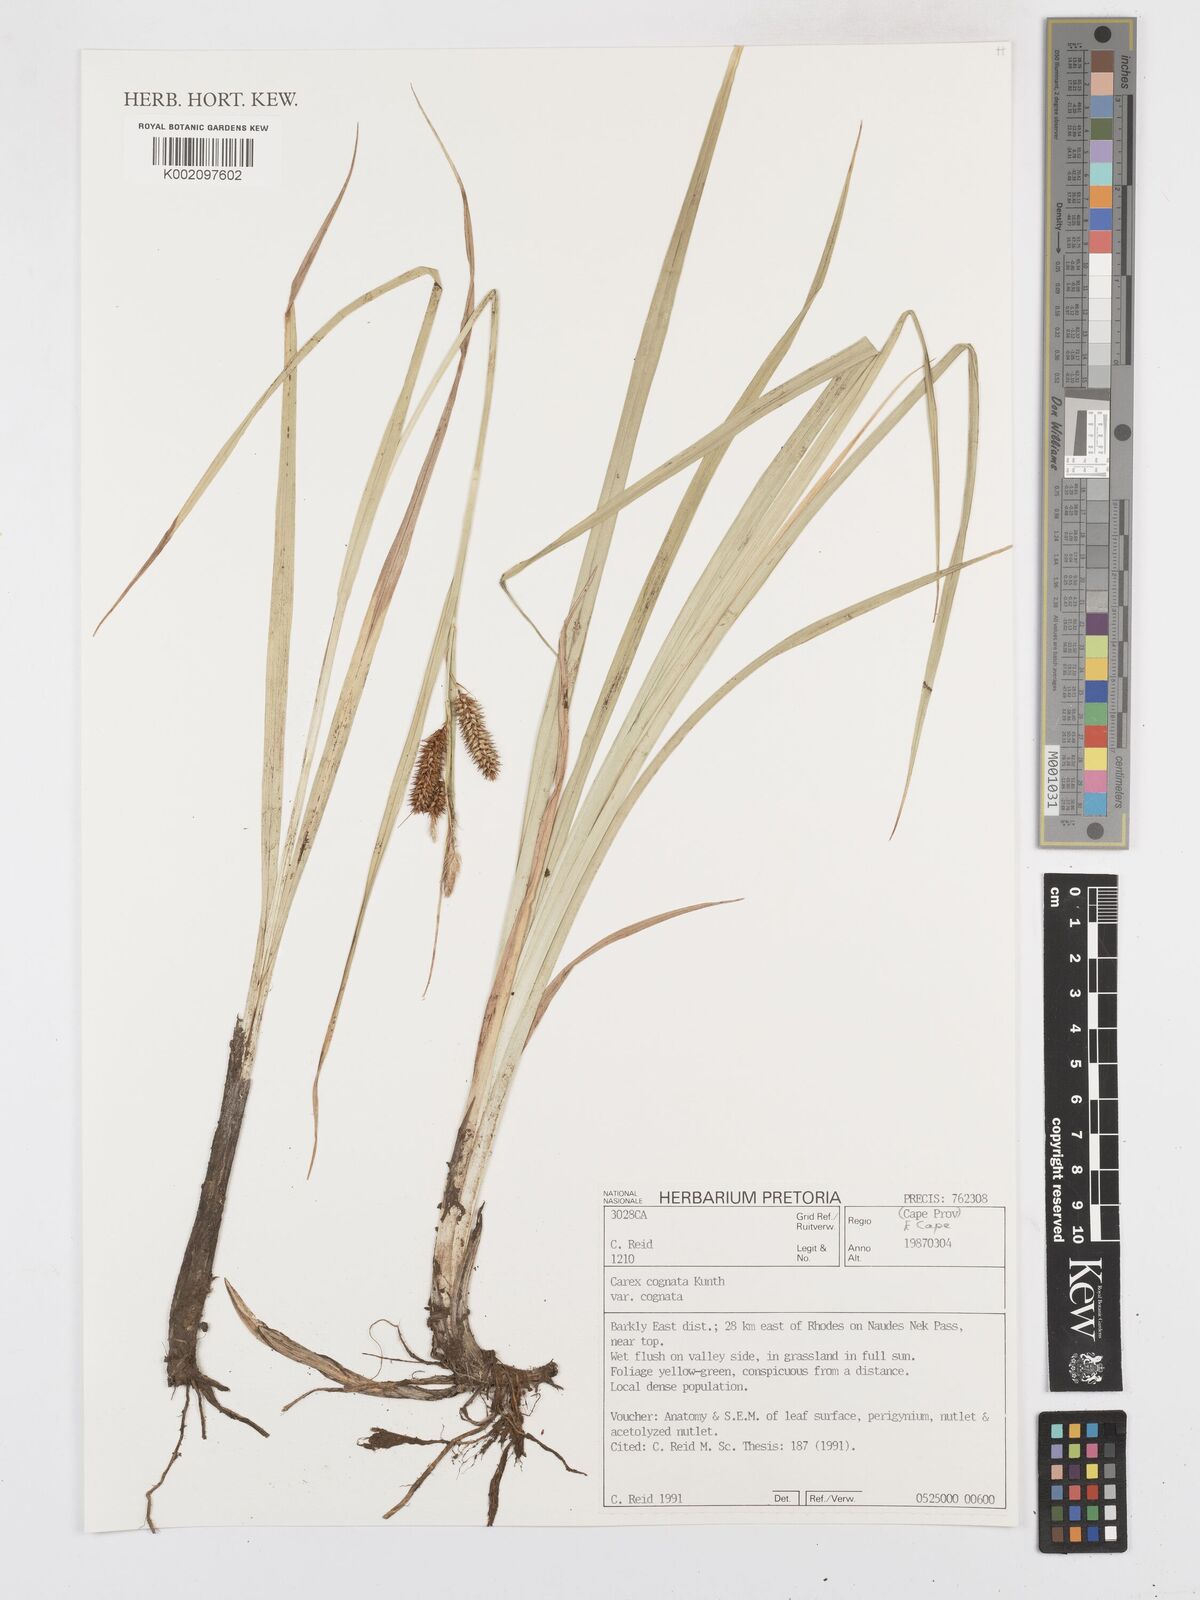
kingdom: Plantae
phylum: Tracheophyta
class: Liliopsida
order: Poales
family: Cyperaceae
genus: Carex
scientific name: Carex cognata
